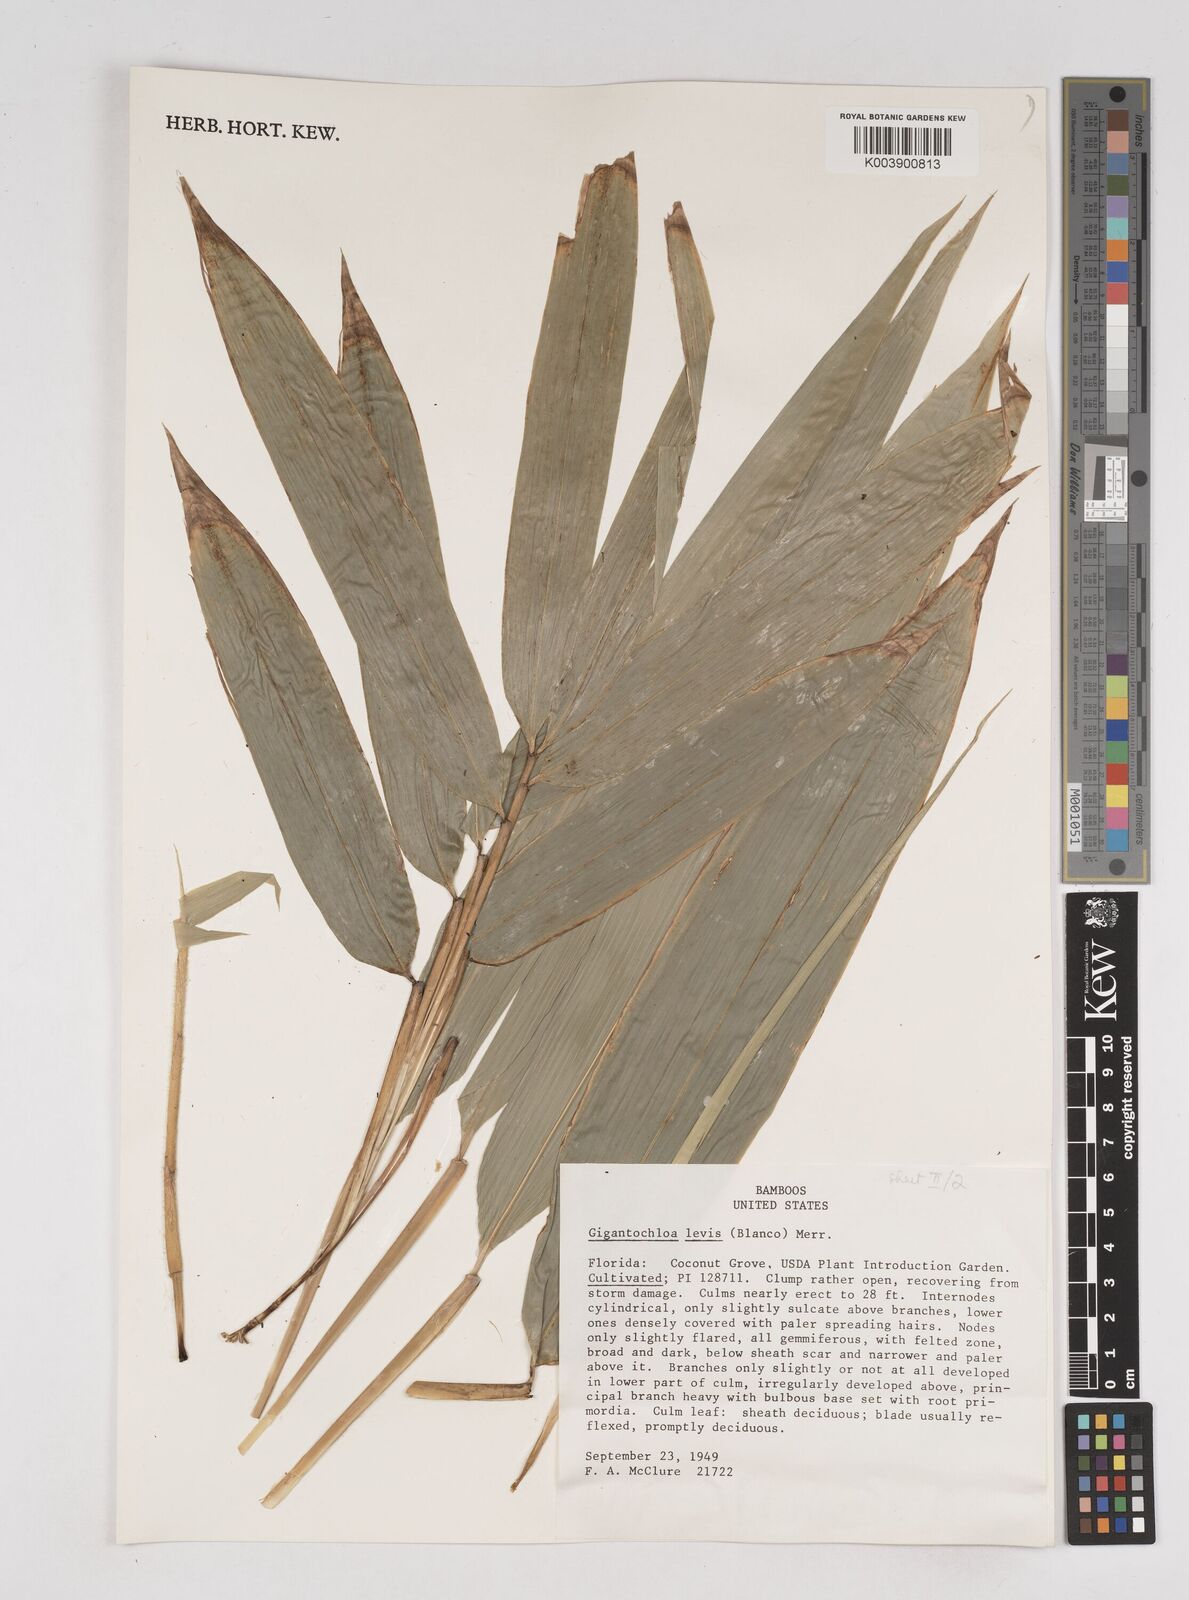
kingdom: Plantae
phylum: Tracheophyta
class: Liliopsida
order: Poales
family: Poaceae
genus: Gigantochloa
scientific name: Gigantochloa levis
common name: Smooth-shoot gigantochloa
